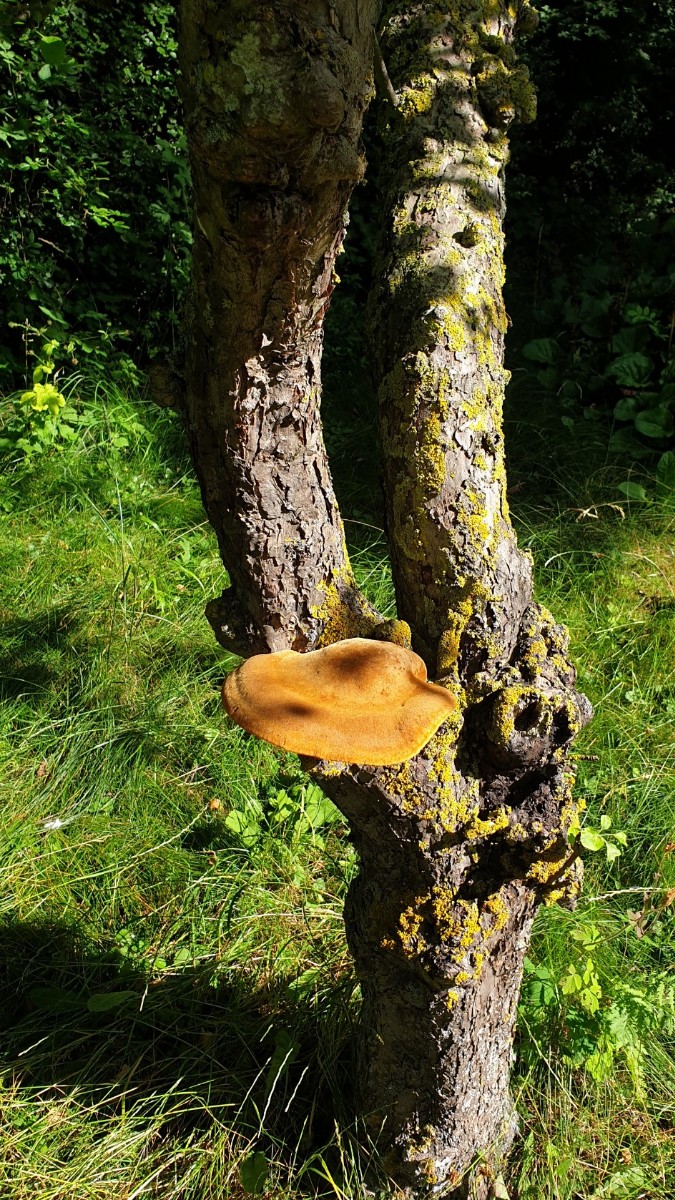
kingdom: Fungi
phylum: Basidiomycota
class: Agaricomycetes
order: Hymenochaetales
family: Hymenochaetaceae
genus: Inonotus
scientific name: Inonotus hispidus
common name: børstehåret spejlporesvamp
